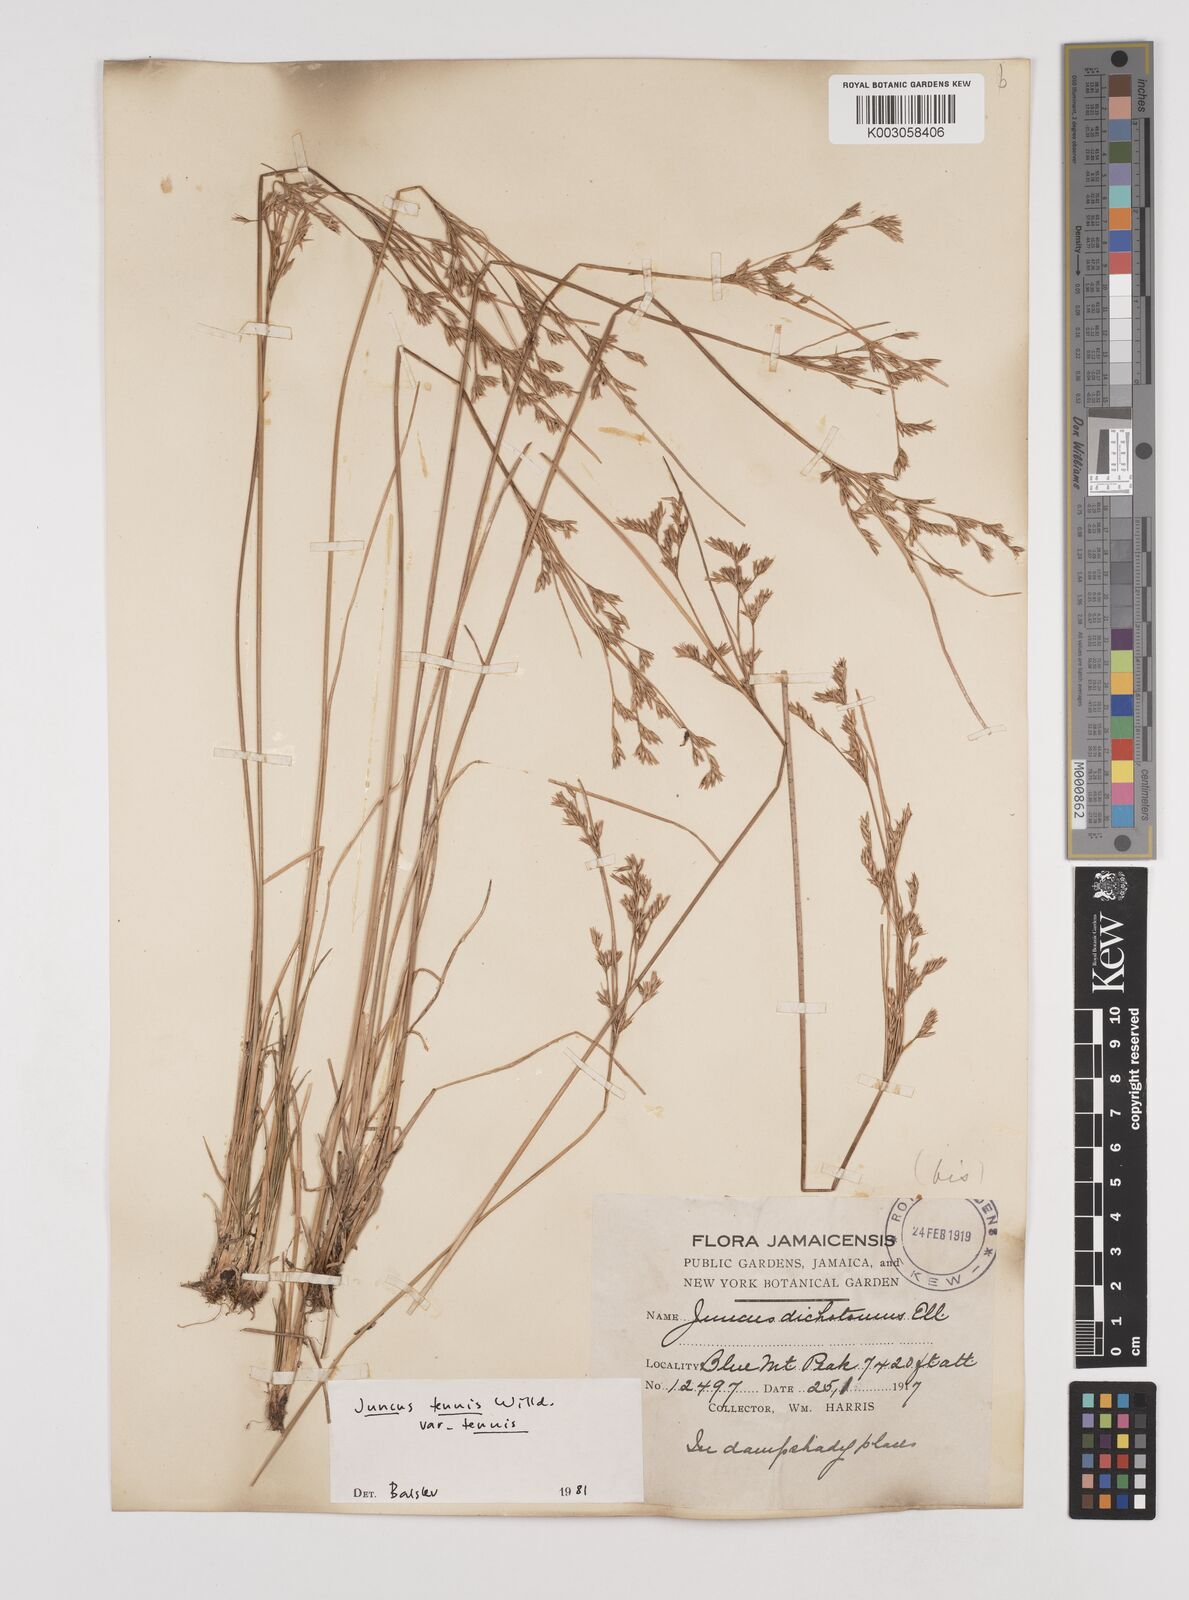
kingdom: Plantae
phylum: Tracheophyta
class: Liliopsida
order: Poales
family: Juncaceae
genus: Juncus
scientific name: Juncus tenuis
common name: Slender rush
